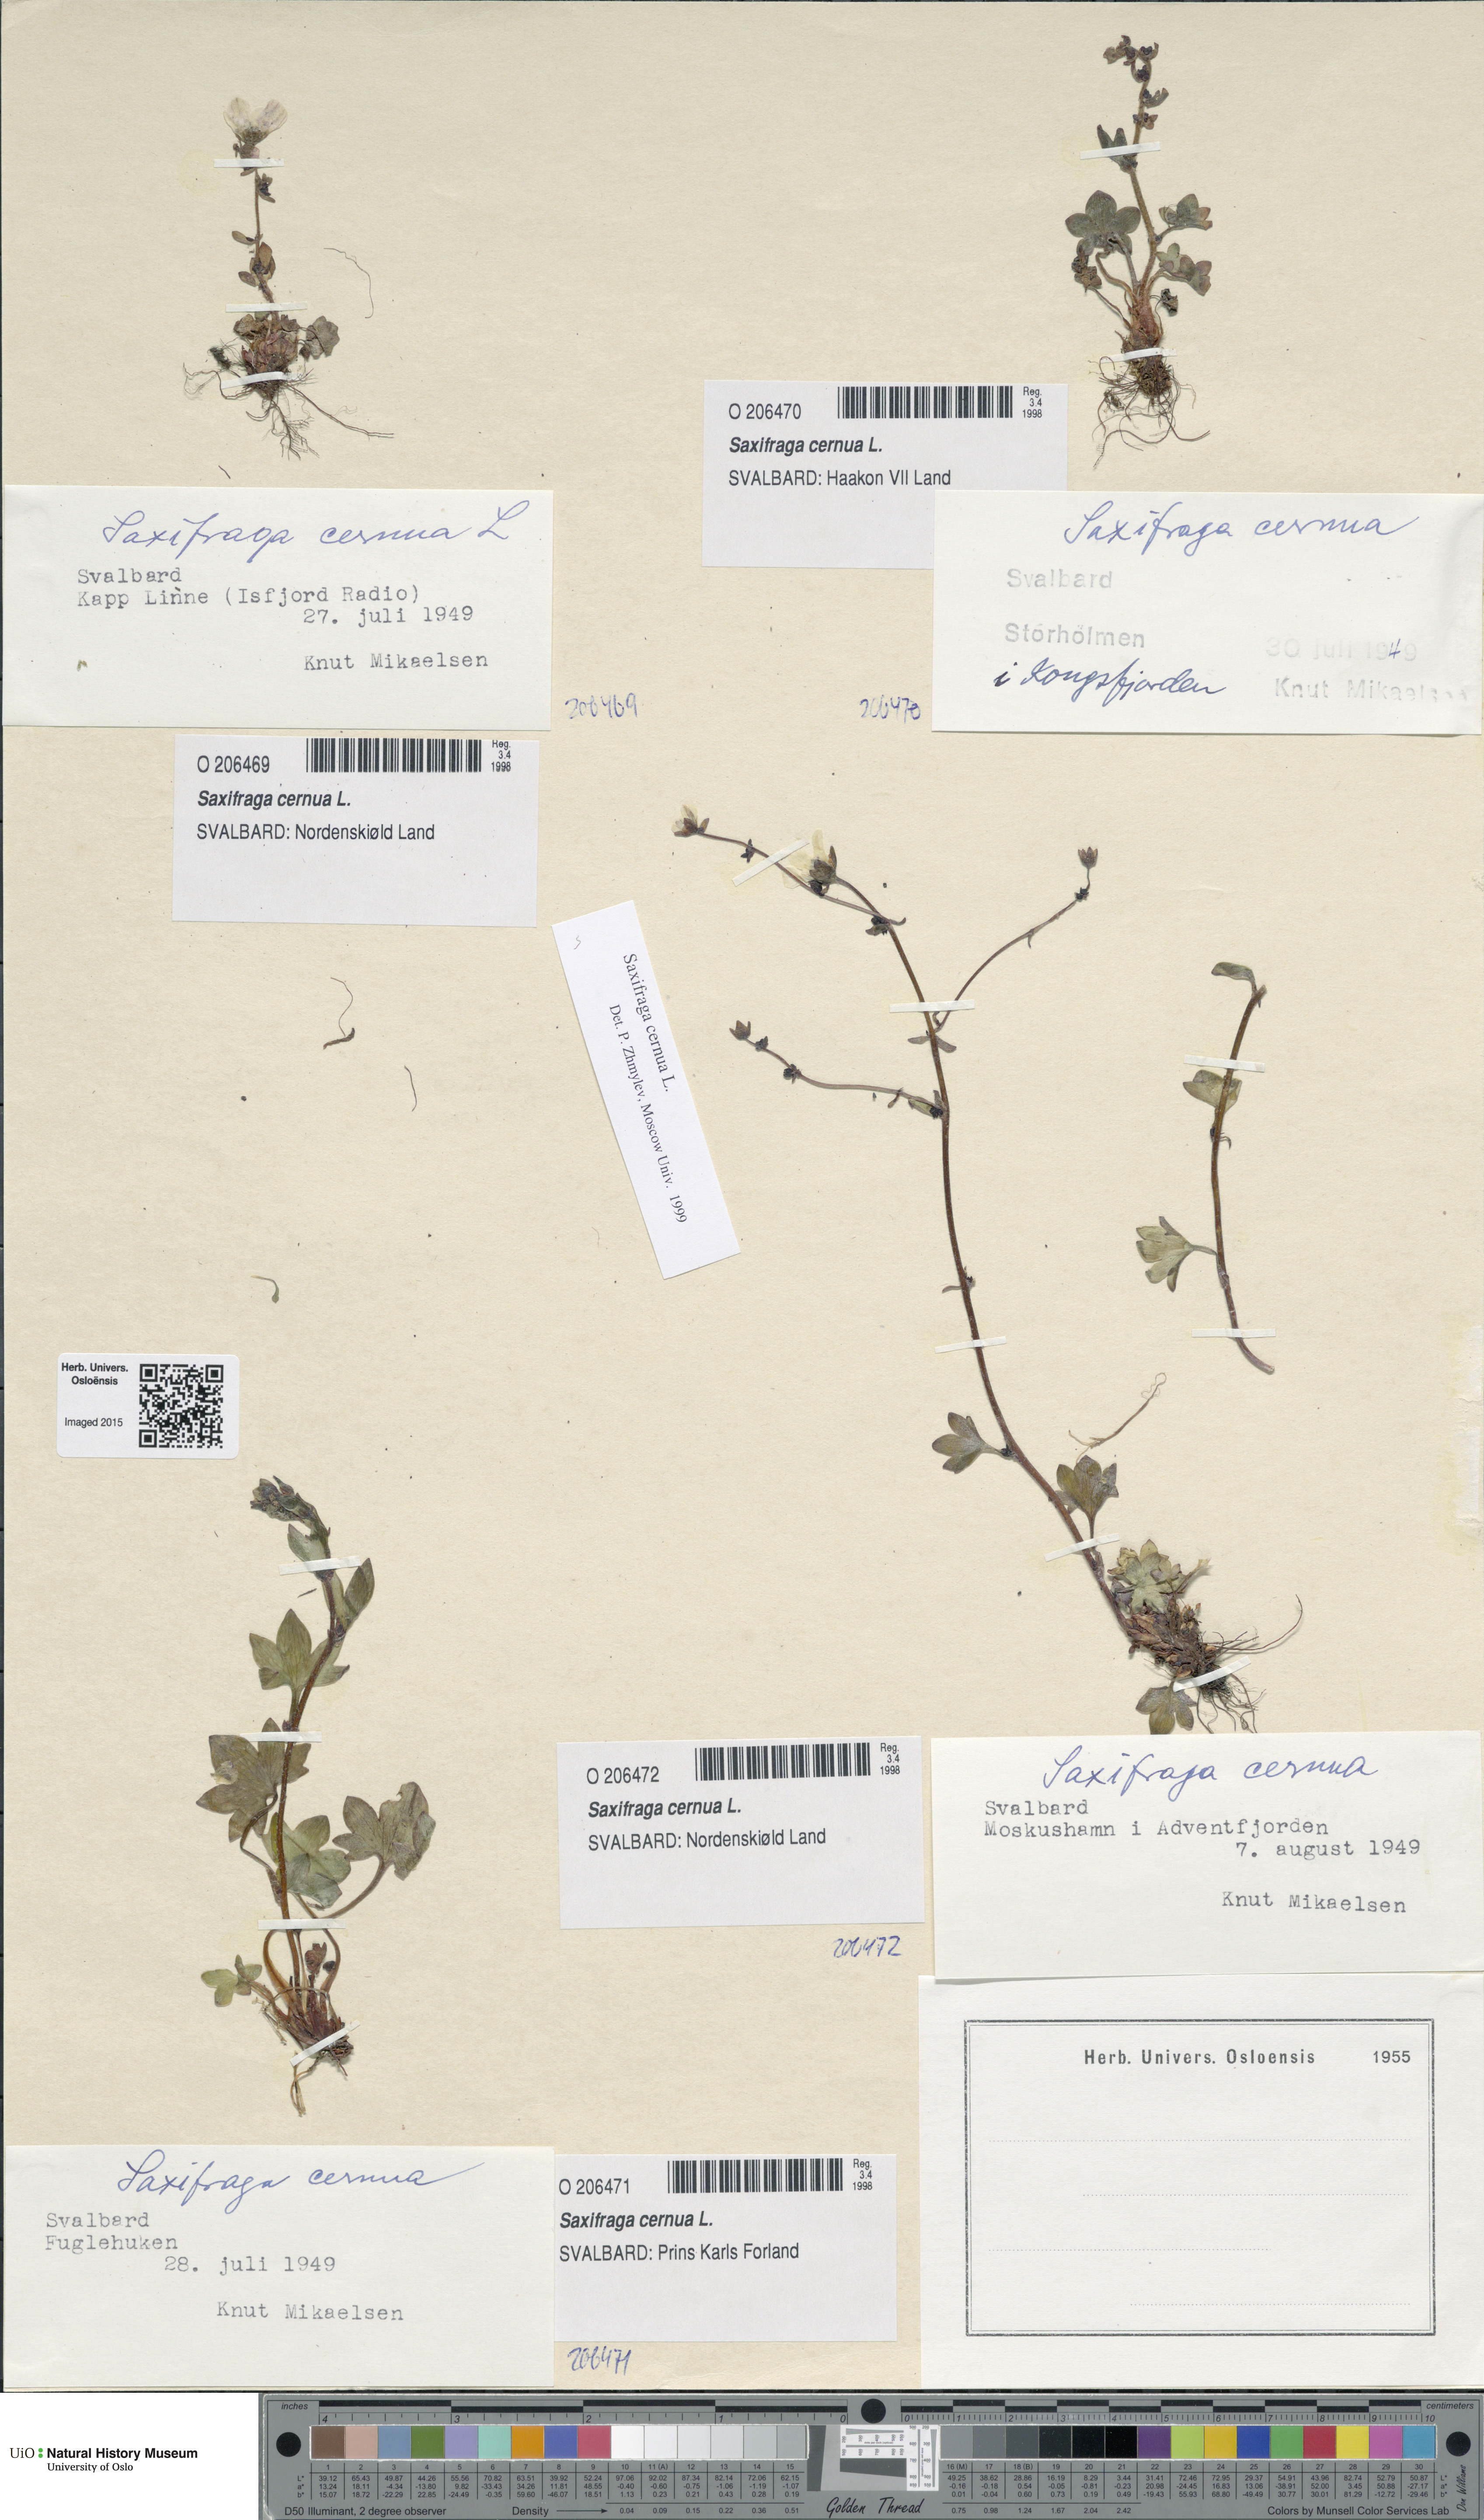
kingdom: Plantae
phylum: Tracheophyta
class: Magnoliopsida
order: Saxifragales
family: Saxifragaceae
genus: Saxifraga
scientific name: Saxifraga cernua
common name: Drooping saxifrage
